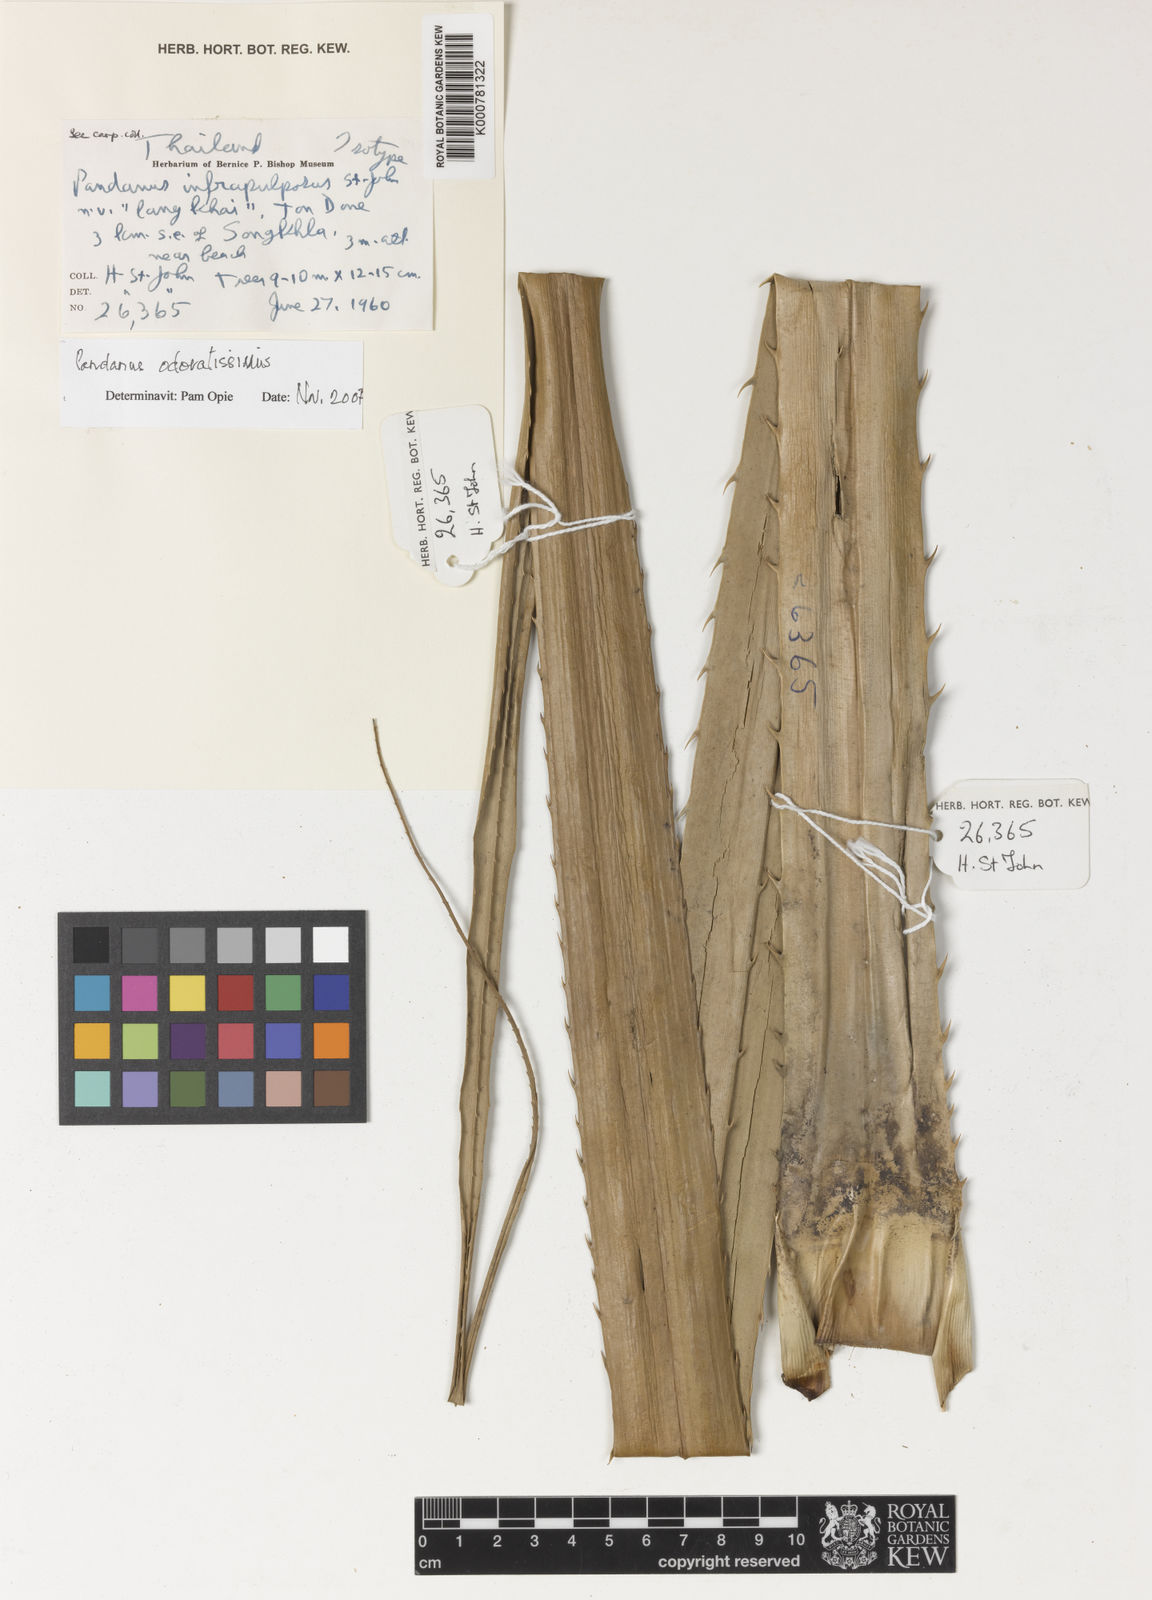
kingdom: Plantae
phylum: Tracheophyta
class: Liliopsida
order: Pandanales
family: Pandanaceae
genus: Pandanus
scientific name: Pandanus odorifer
